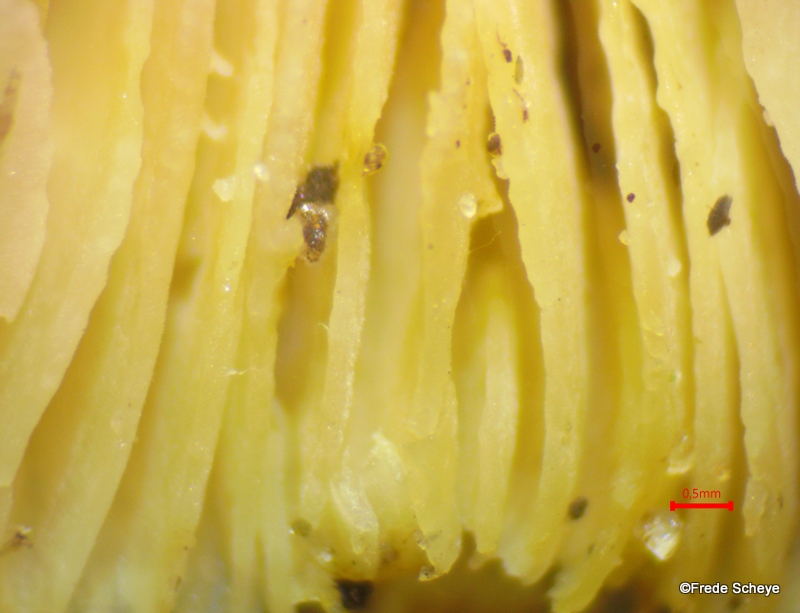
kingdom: Fungi
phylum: Basidiomycota
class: Agaricomycetes
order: Agaricales
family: Tricholomataceae
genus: Tricholoma
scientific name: Tricholoma scalpturatum
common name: gulplettet ridderhat
